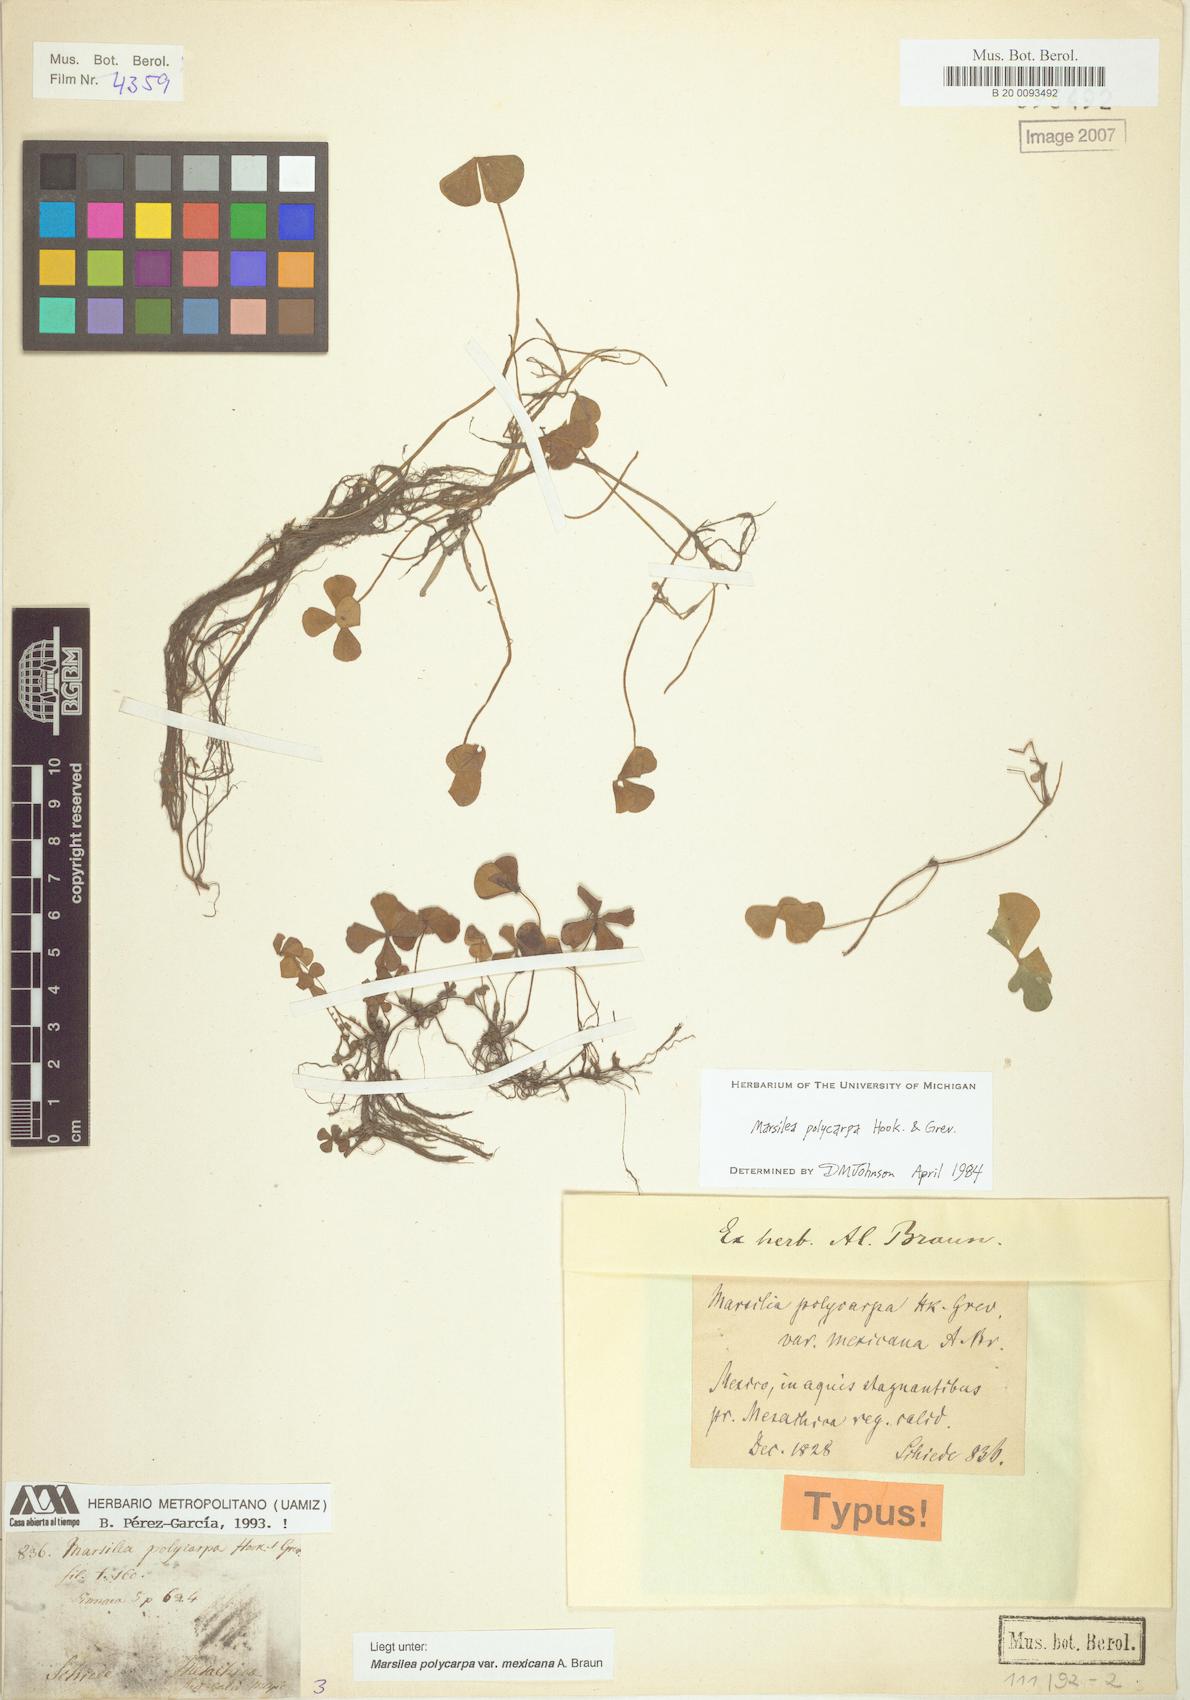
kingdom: Plantae
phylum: Tracheophyta
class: Polypodiopsida
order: Salviniales
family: Marsileaceae
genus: Marsilea
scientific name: Marsilea polycarpa
